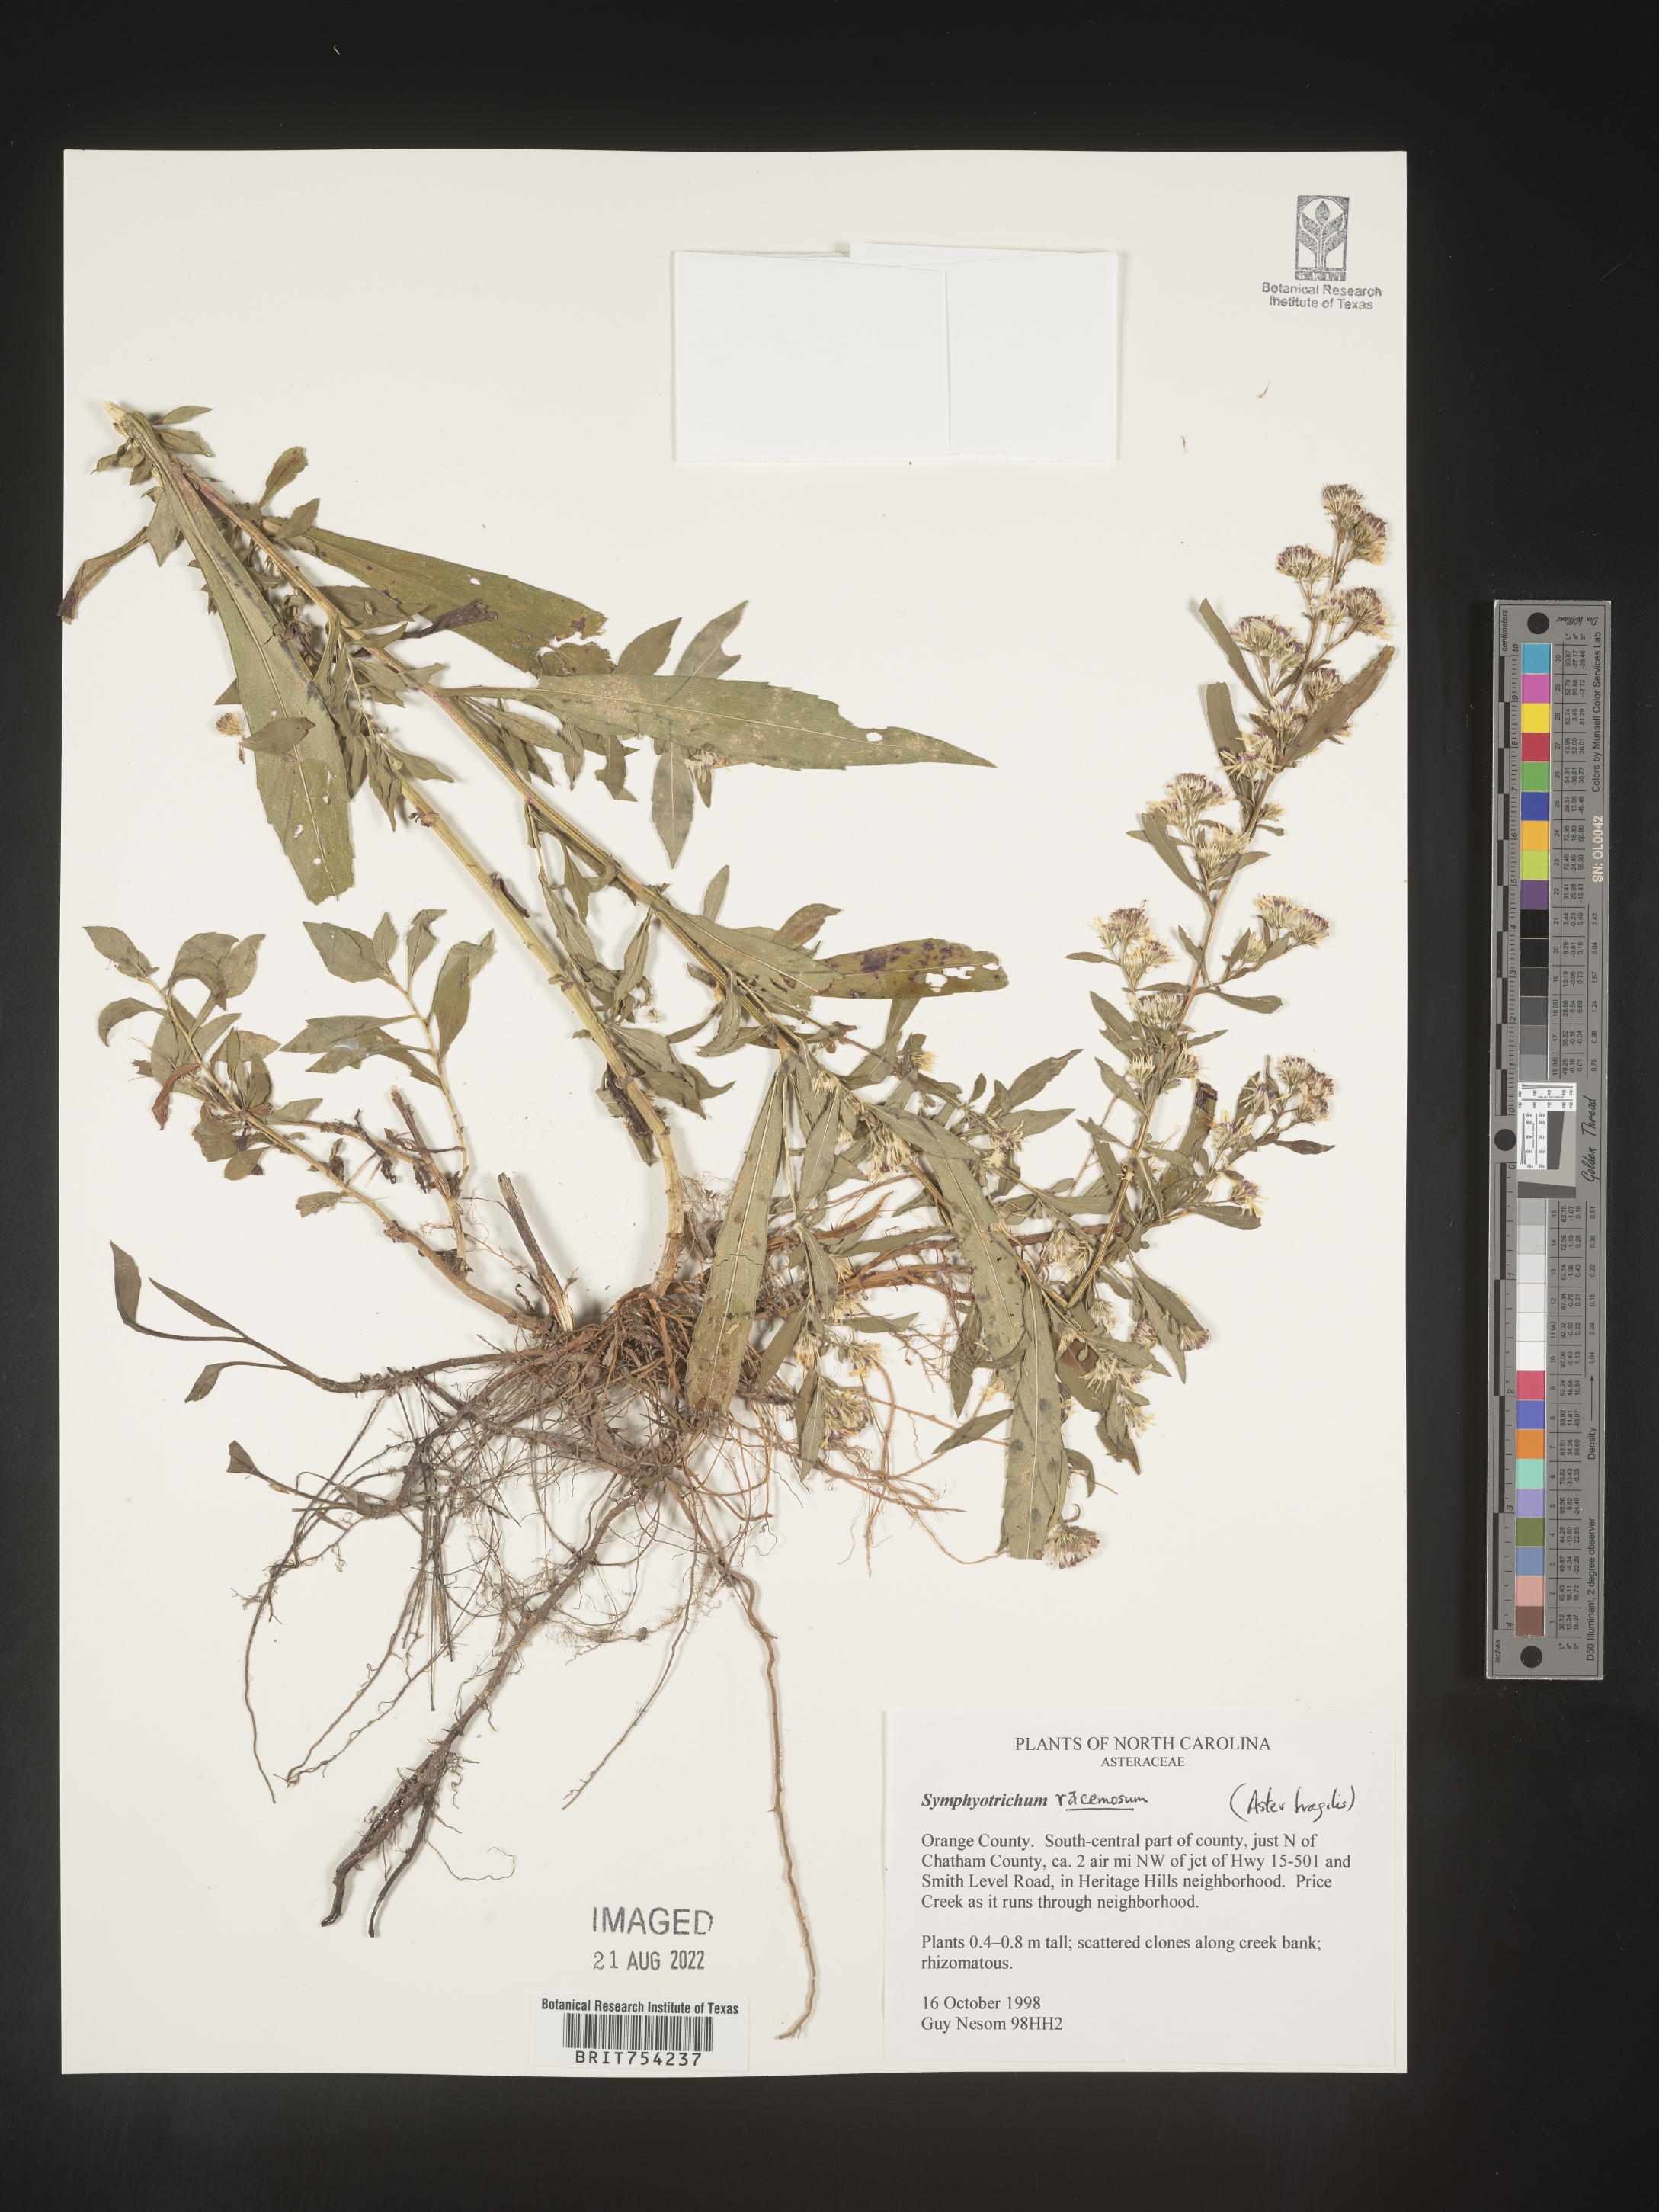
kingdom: Plantae
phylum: Tracheophyta
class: Magnoliopsida
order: Asterales
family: Asteraceae
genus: Symphyotrichum
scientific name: Symphyotrichum racemosum
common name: Small white aster
